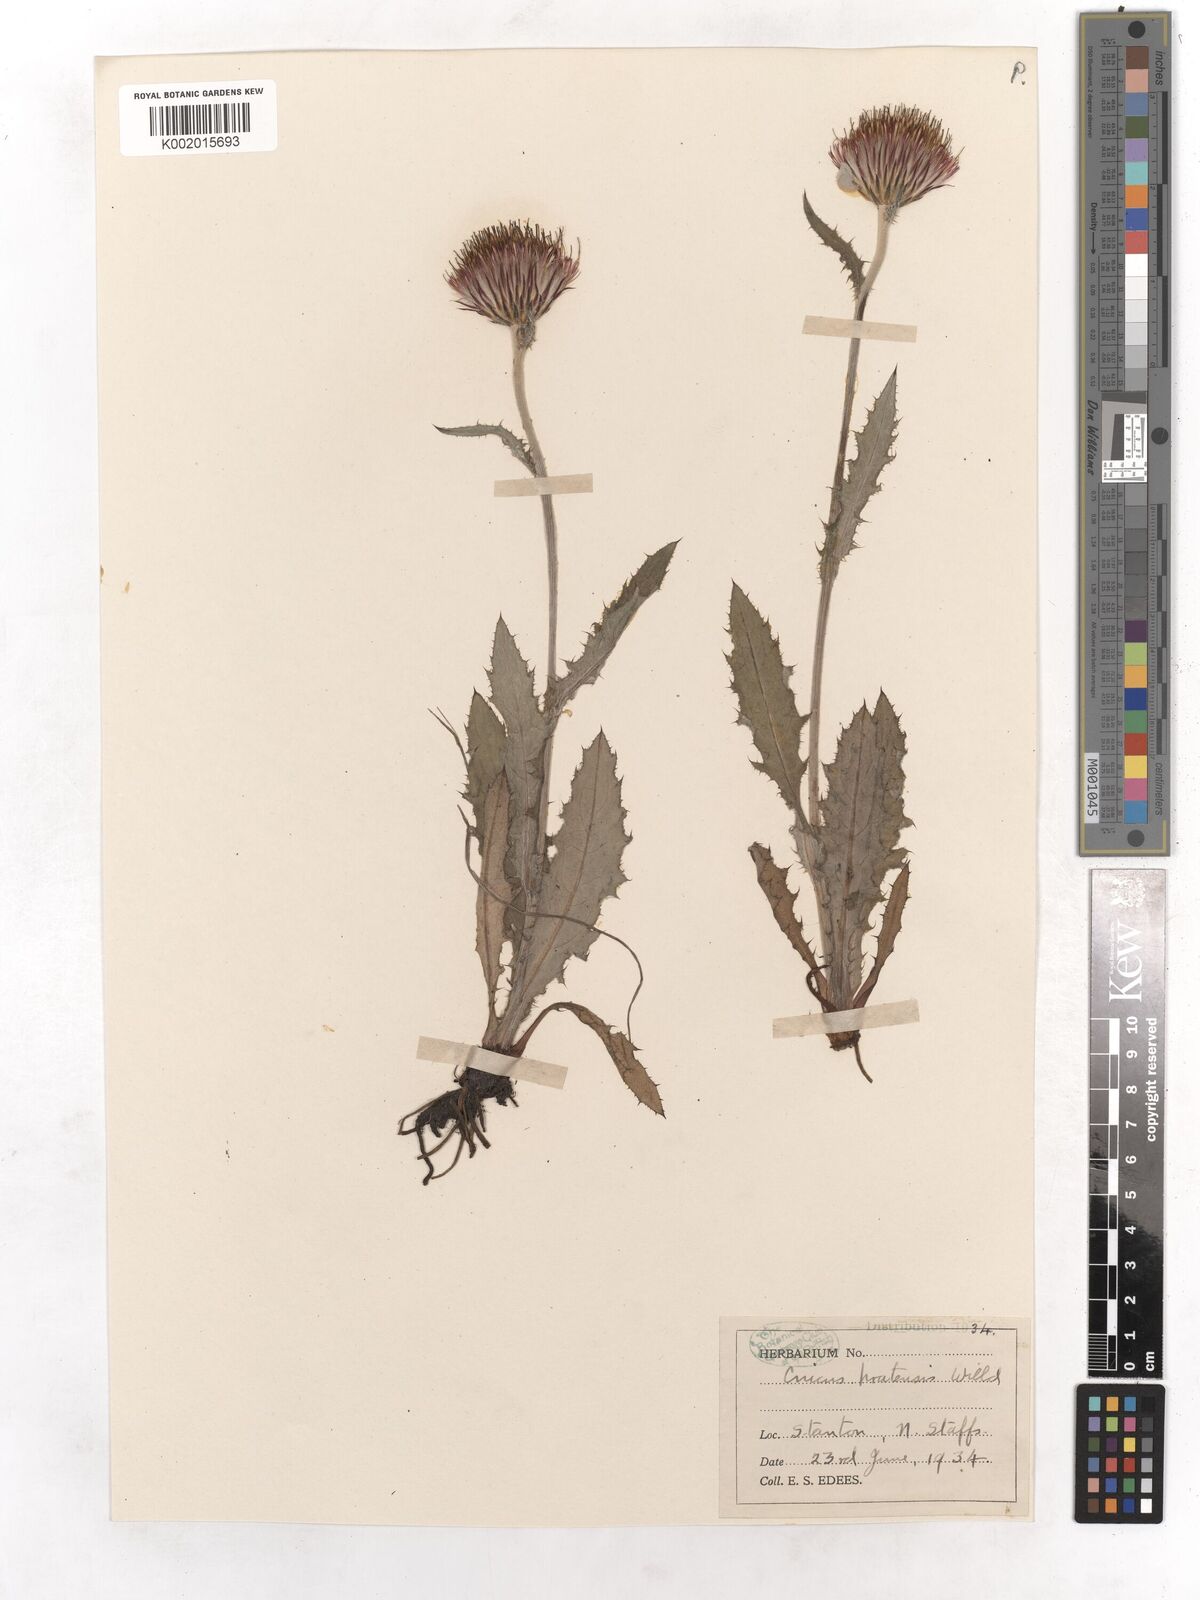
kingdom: Plantae
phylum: Tracheophyta
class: Magnoliopsida
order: Asterales
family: Asteraceae
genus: Cirsium
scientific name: Cirsium dissectum
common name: Meadow thistle
